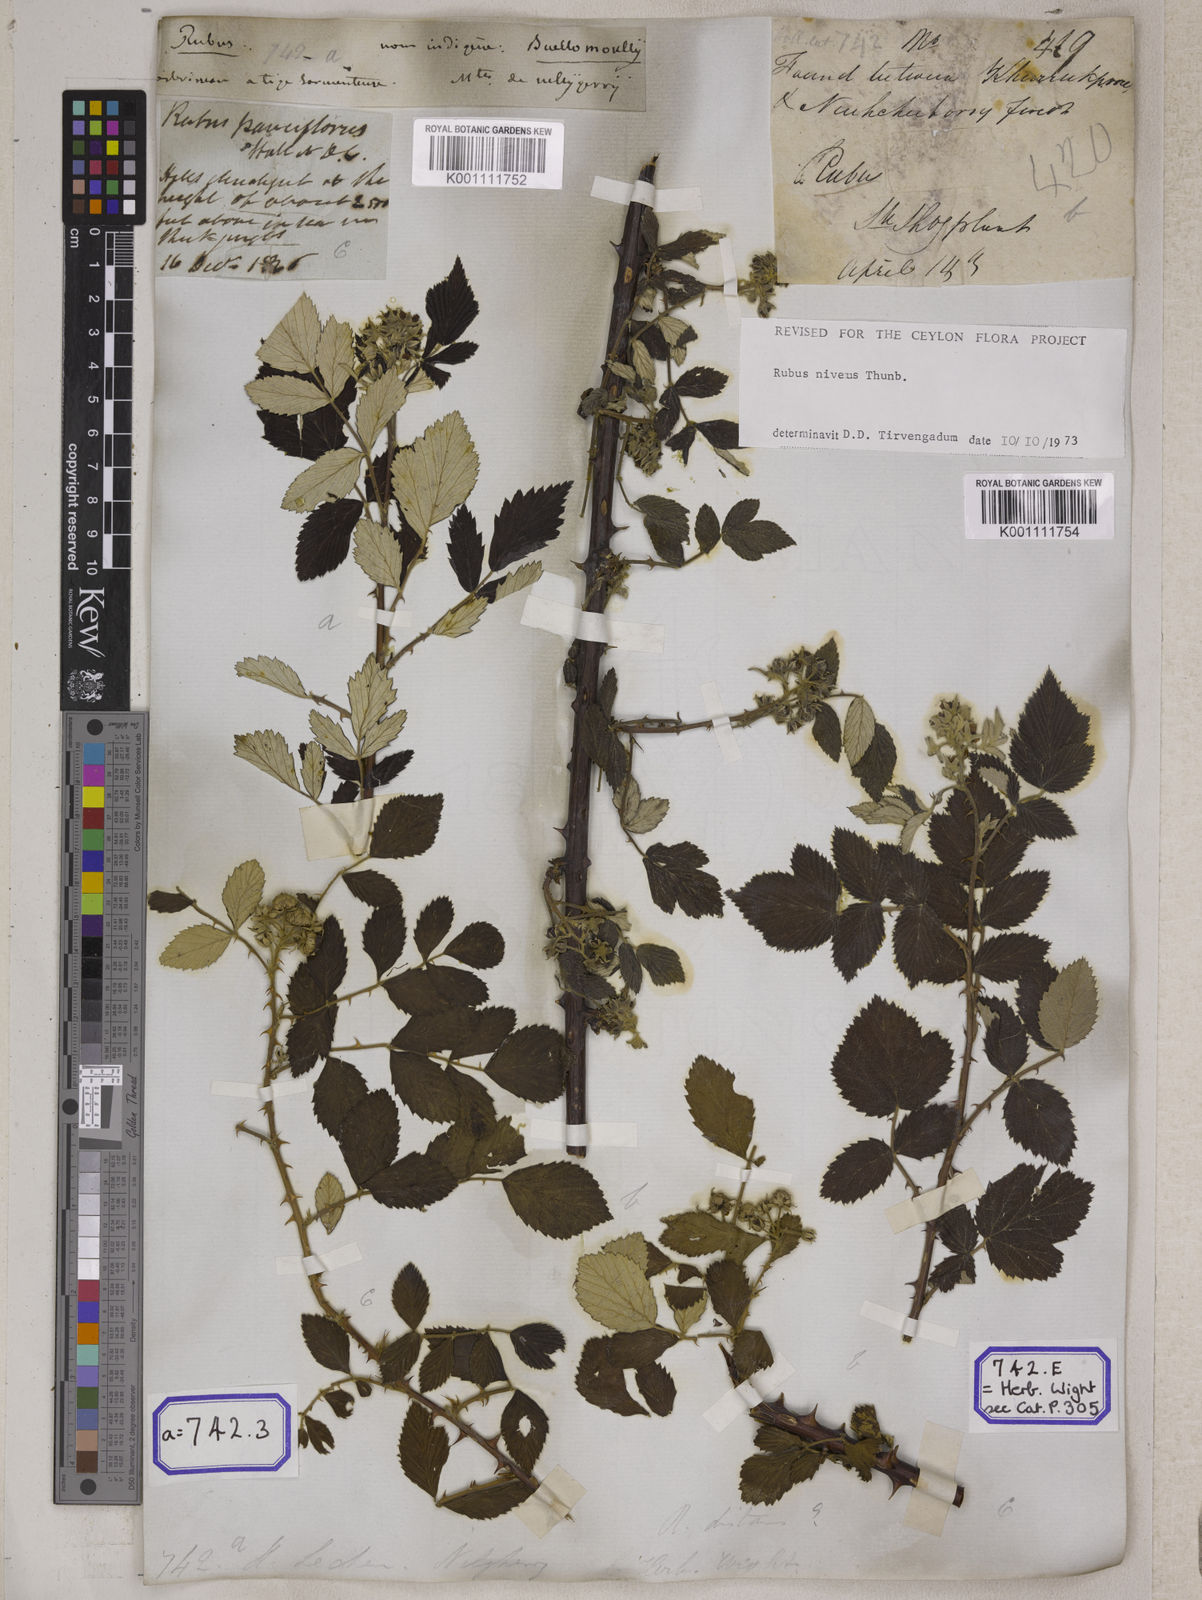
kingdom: Plantae
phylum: Tracheophyta
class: Magnoliopsida
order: Rosales
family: Rosaceae
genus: Rubus
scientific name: Rubus niveus
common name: Snowpeaks raspberry
